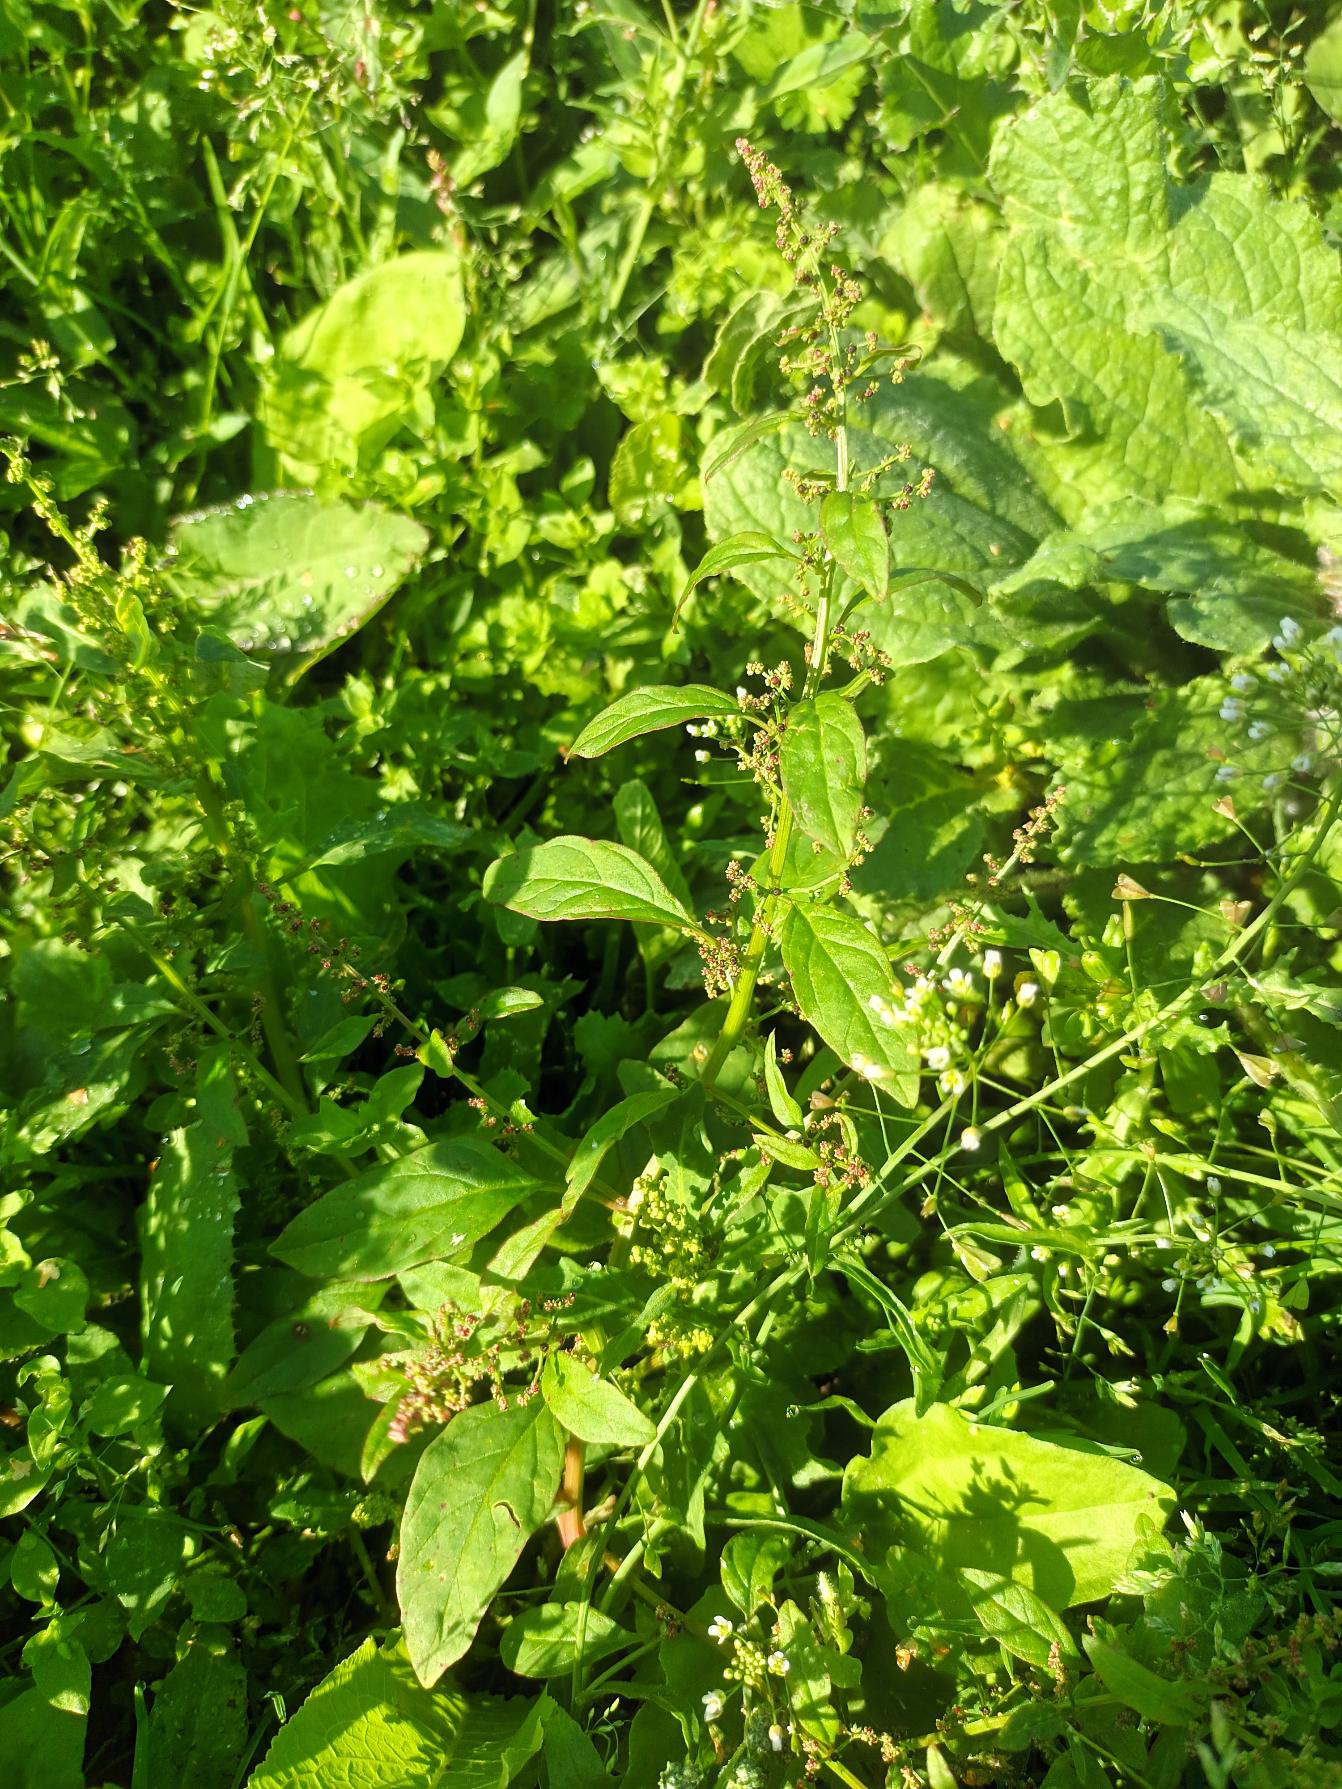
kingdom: Plantae
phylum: Tracheophyta
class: Magnoliopsida
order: Caryophyllales
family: Amaranthaceae
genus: Lipandra
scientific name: Lipandra polysperma
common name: Mangefrøet gåsefod
